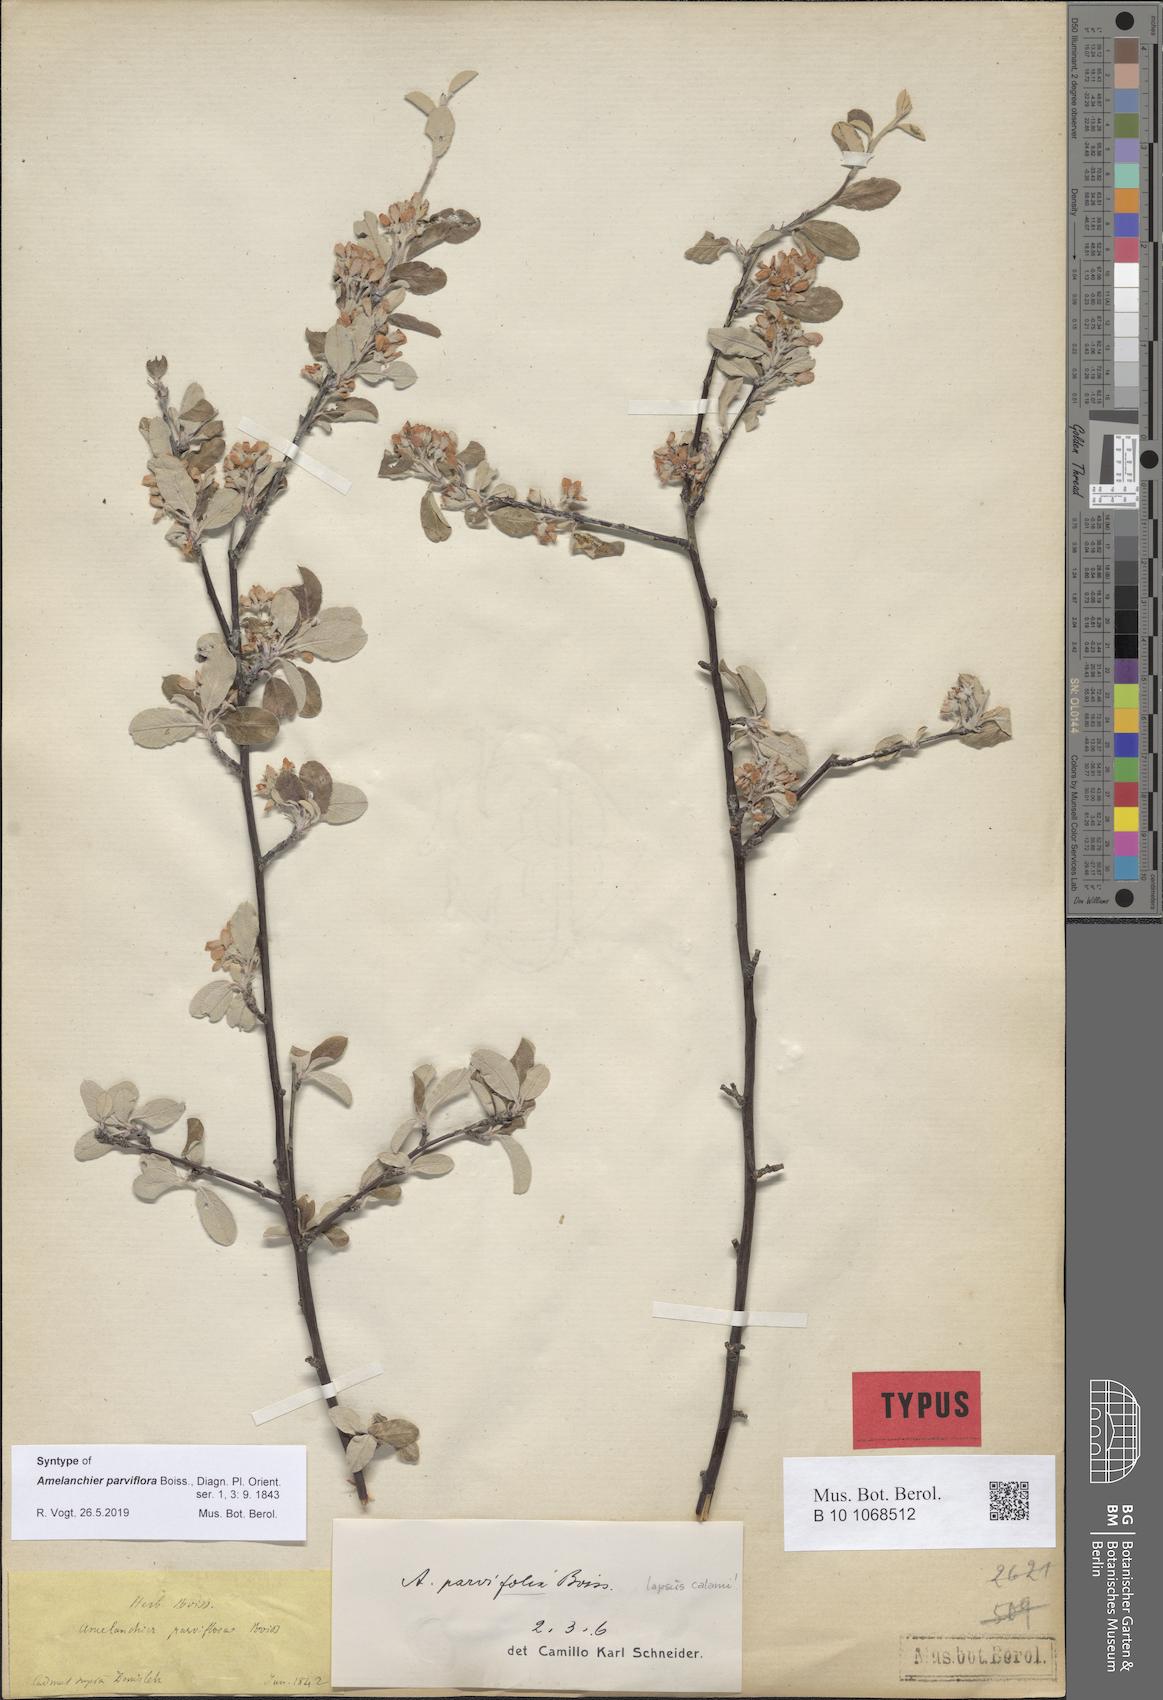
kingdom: Plantae
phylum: Tracheophyta
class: Magnoliopsida
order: Rosales
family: Rosaceae
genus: Amelanchier
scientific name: Amelanchier parviflora
